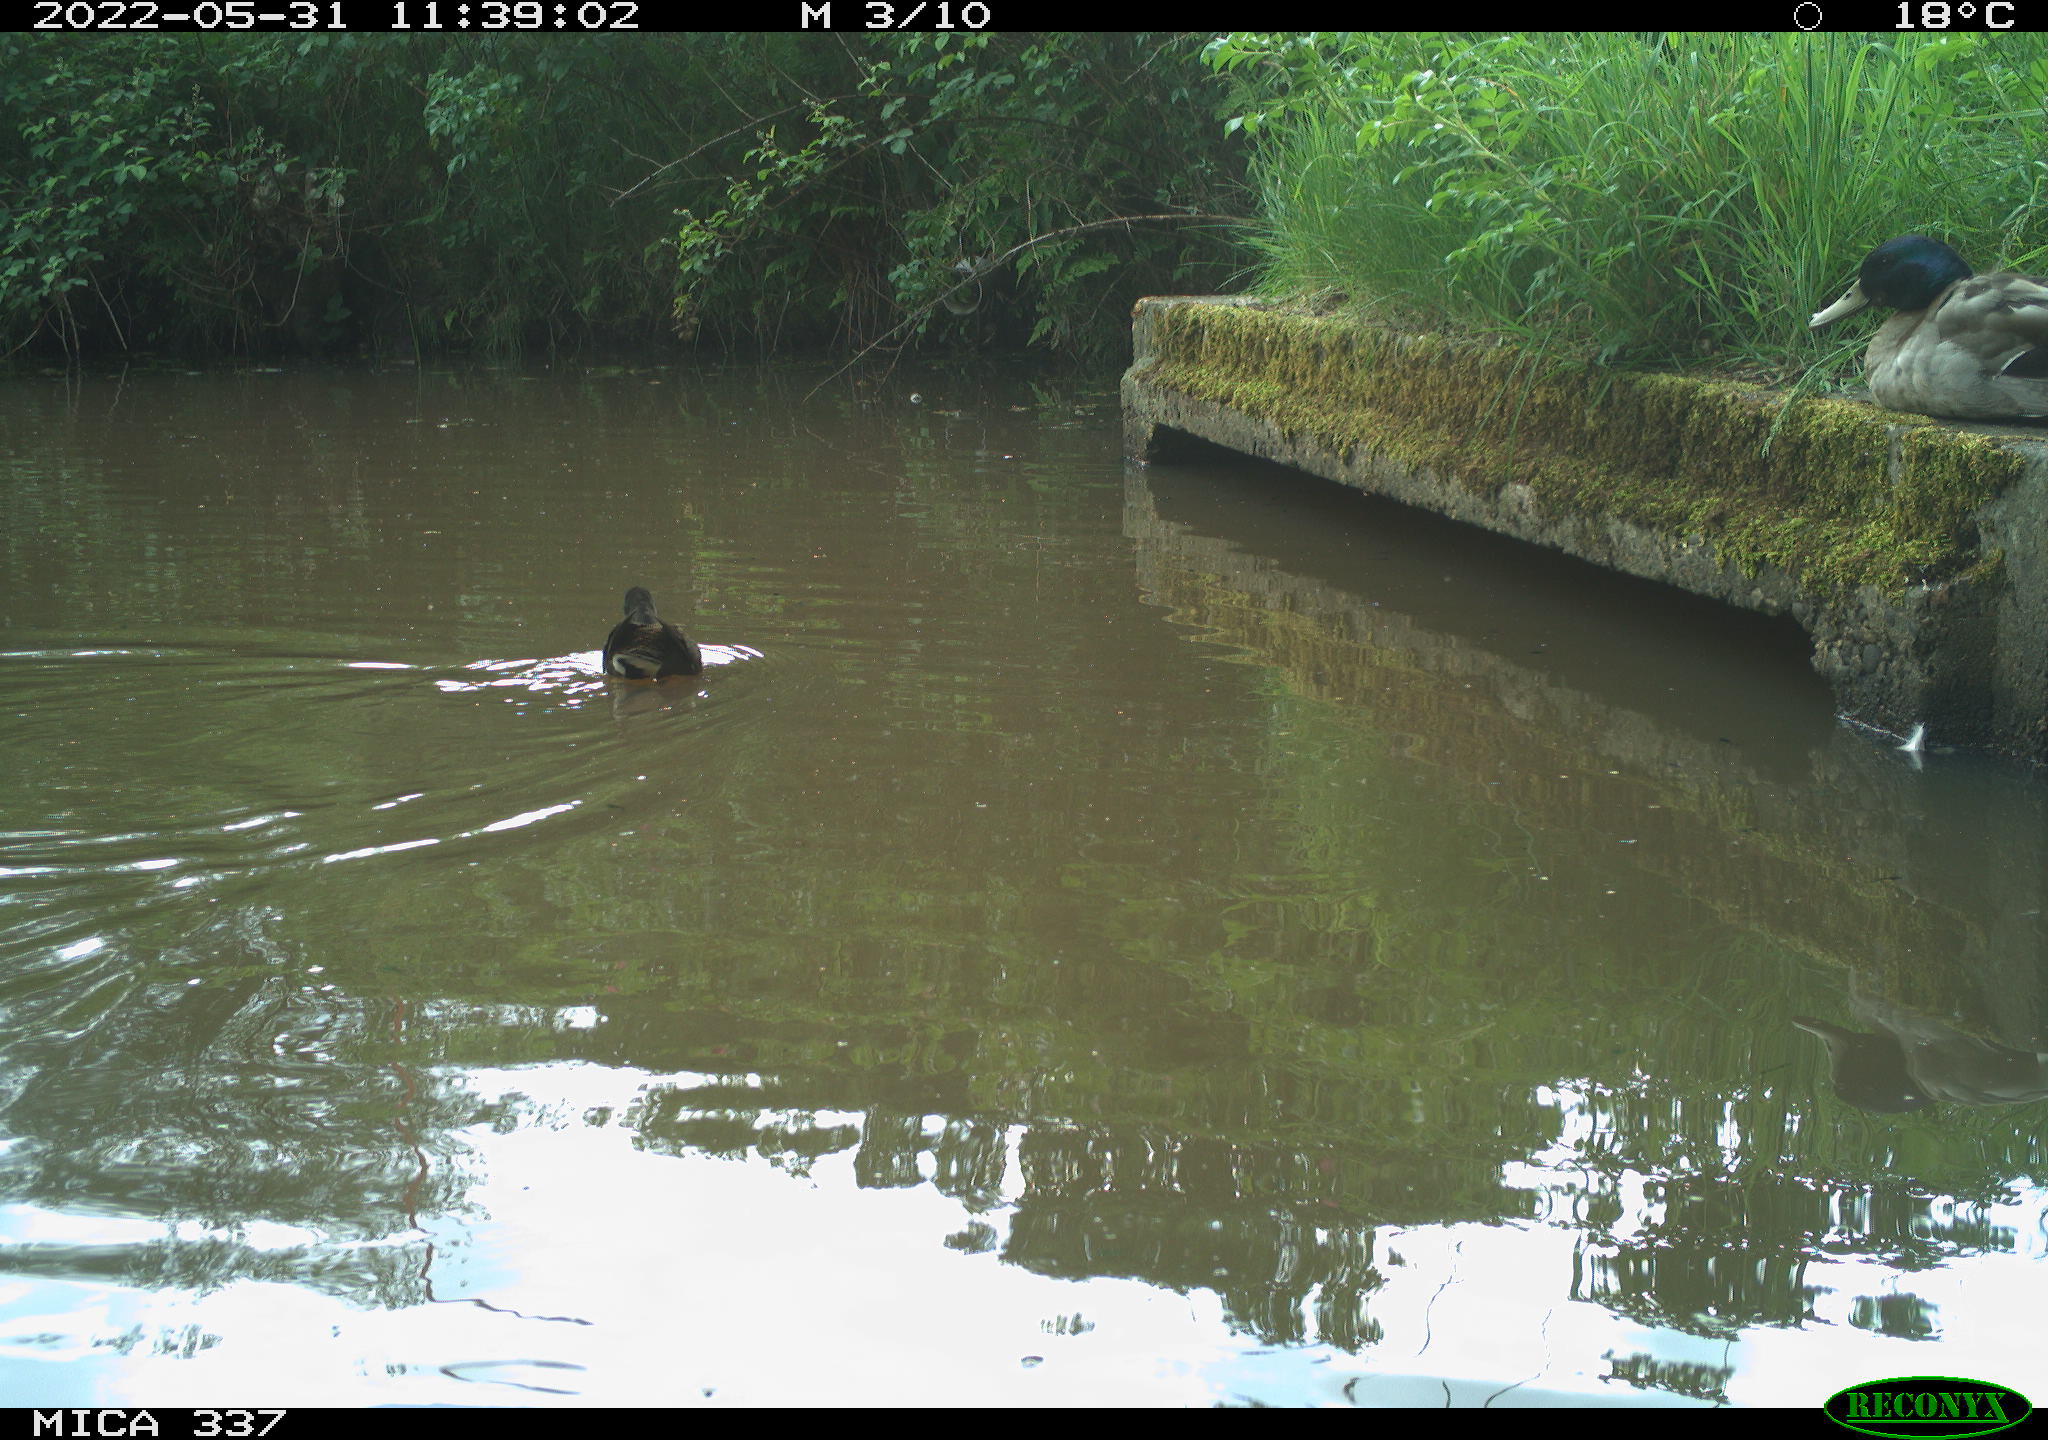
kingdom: Animalia
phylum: Chordata
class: Aves
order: Anseriformes
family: Anatidae
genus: Anas
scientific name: Anas platyrhynchos
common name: Mallard
